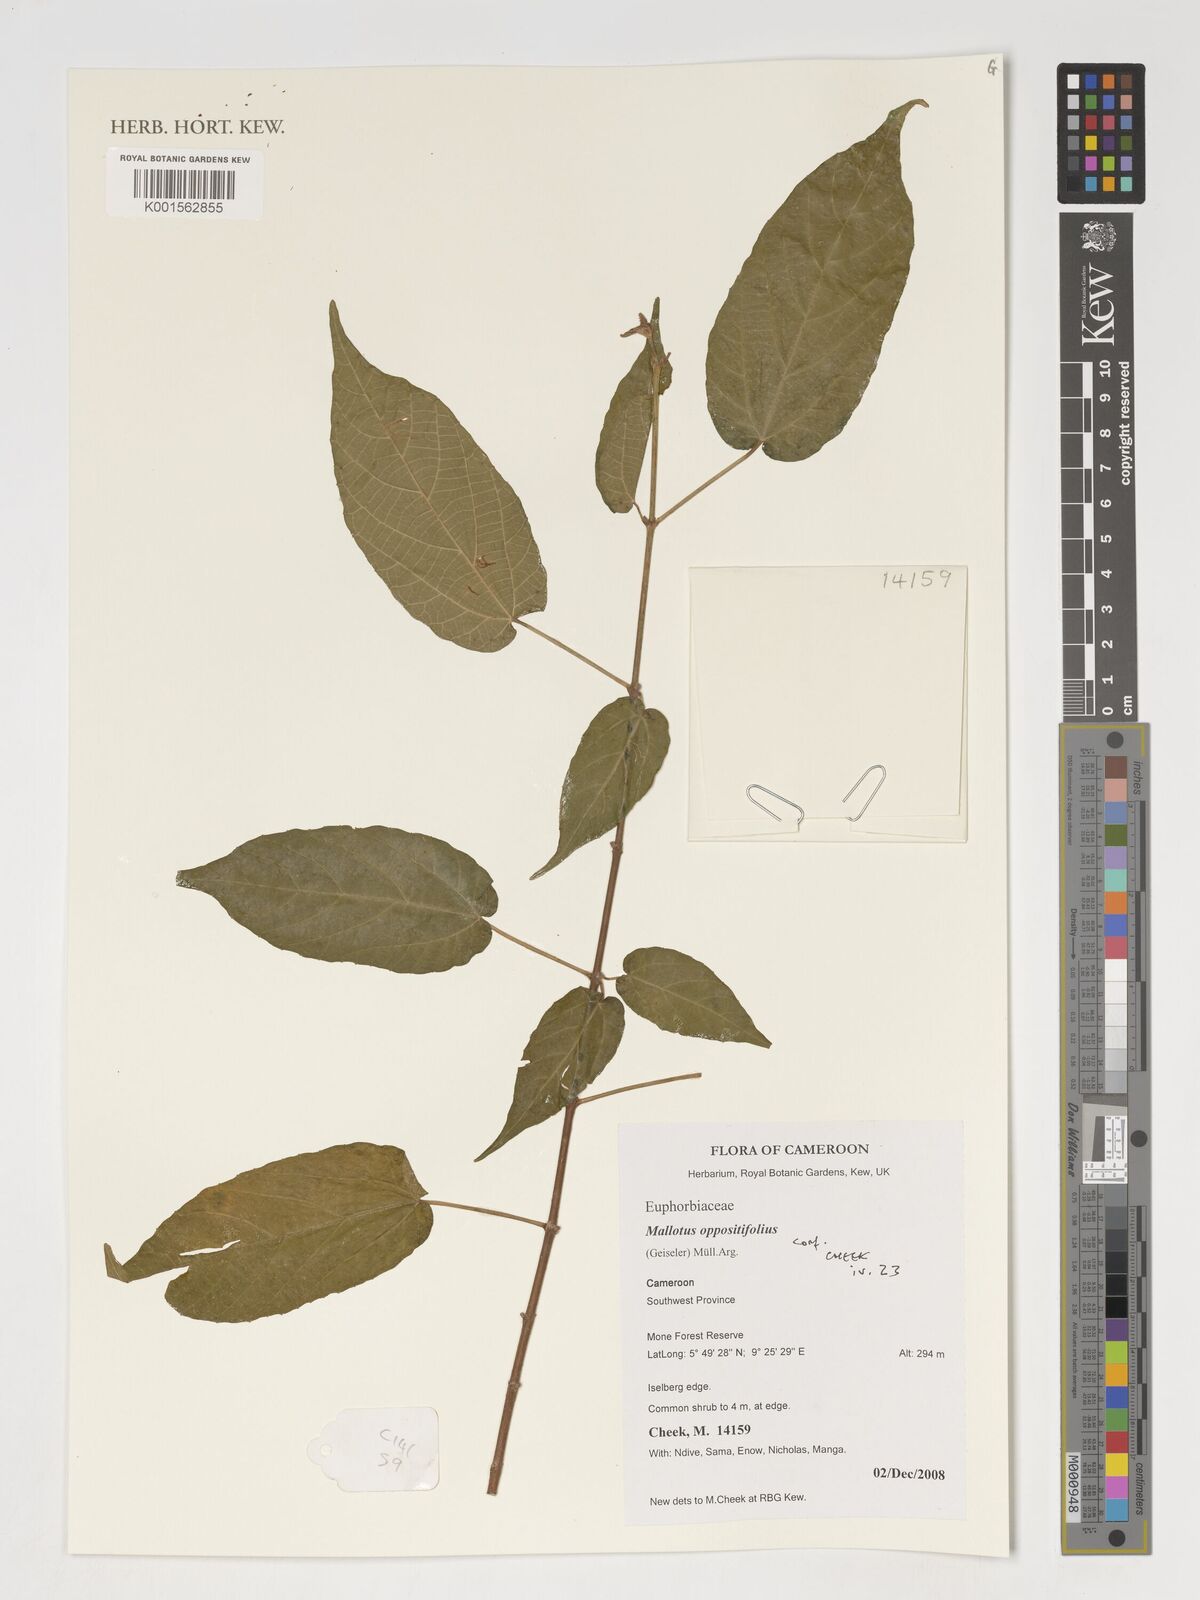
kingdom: Plantae
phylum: Tracheophyta
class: Magnoliopsida
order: Malpighiales
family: Euphorbiaceae
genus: Mallotus
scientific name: Mallotus oppositifolius
